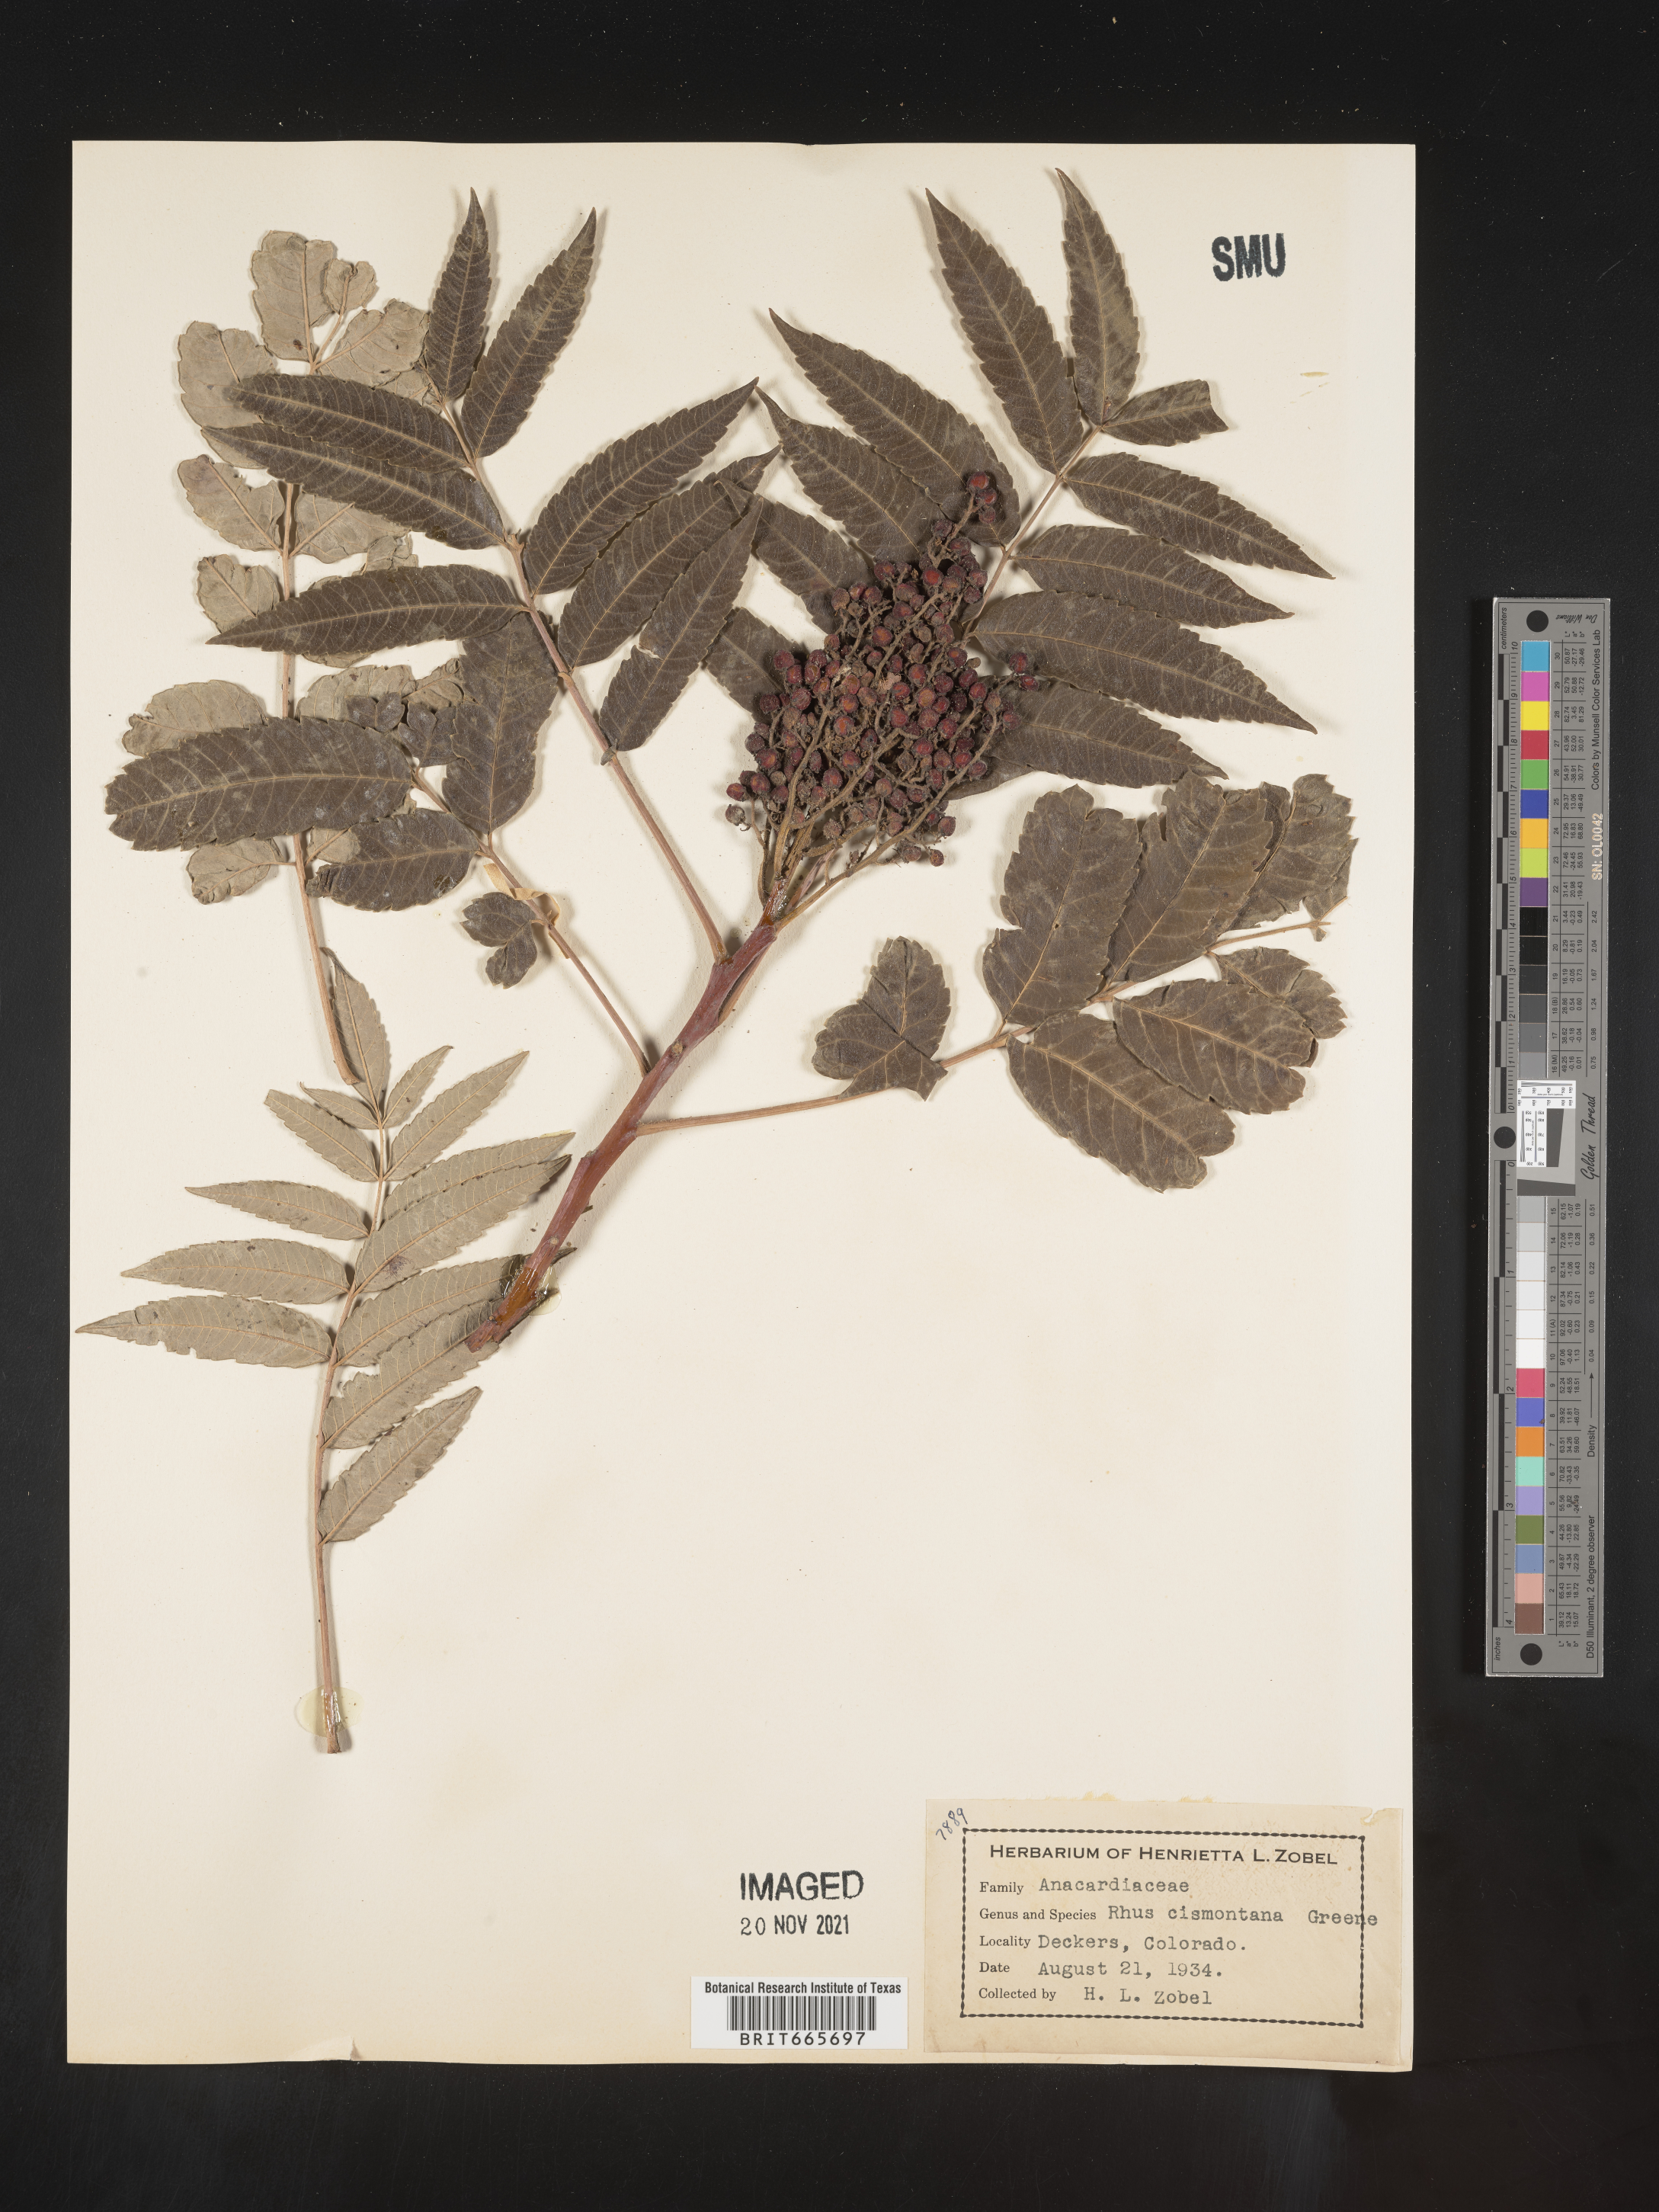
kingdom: Plantae
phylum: Tracheophyta
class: Magnoliopsida
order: Sapindales
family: Anacardiaceae
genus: Rhus
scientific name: Rhus
